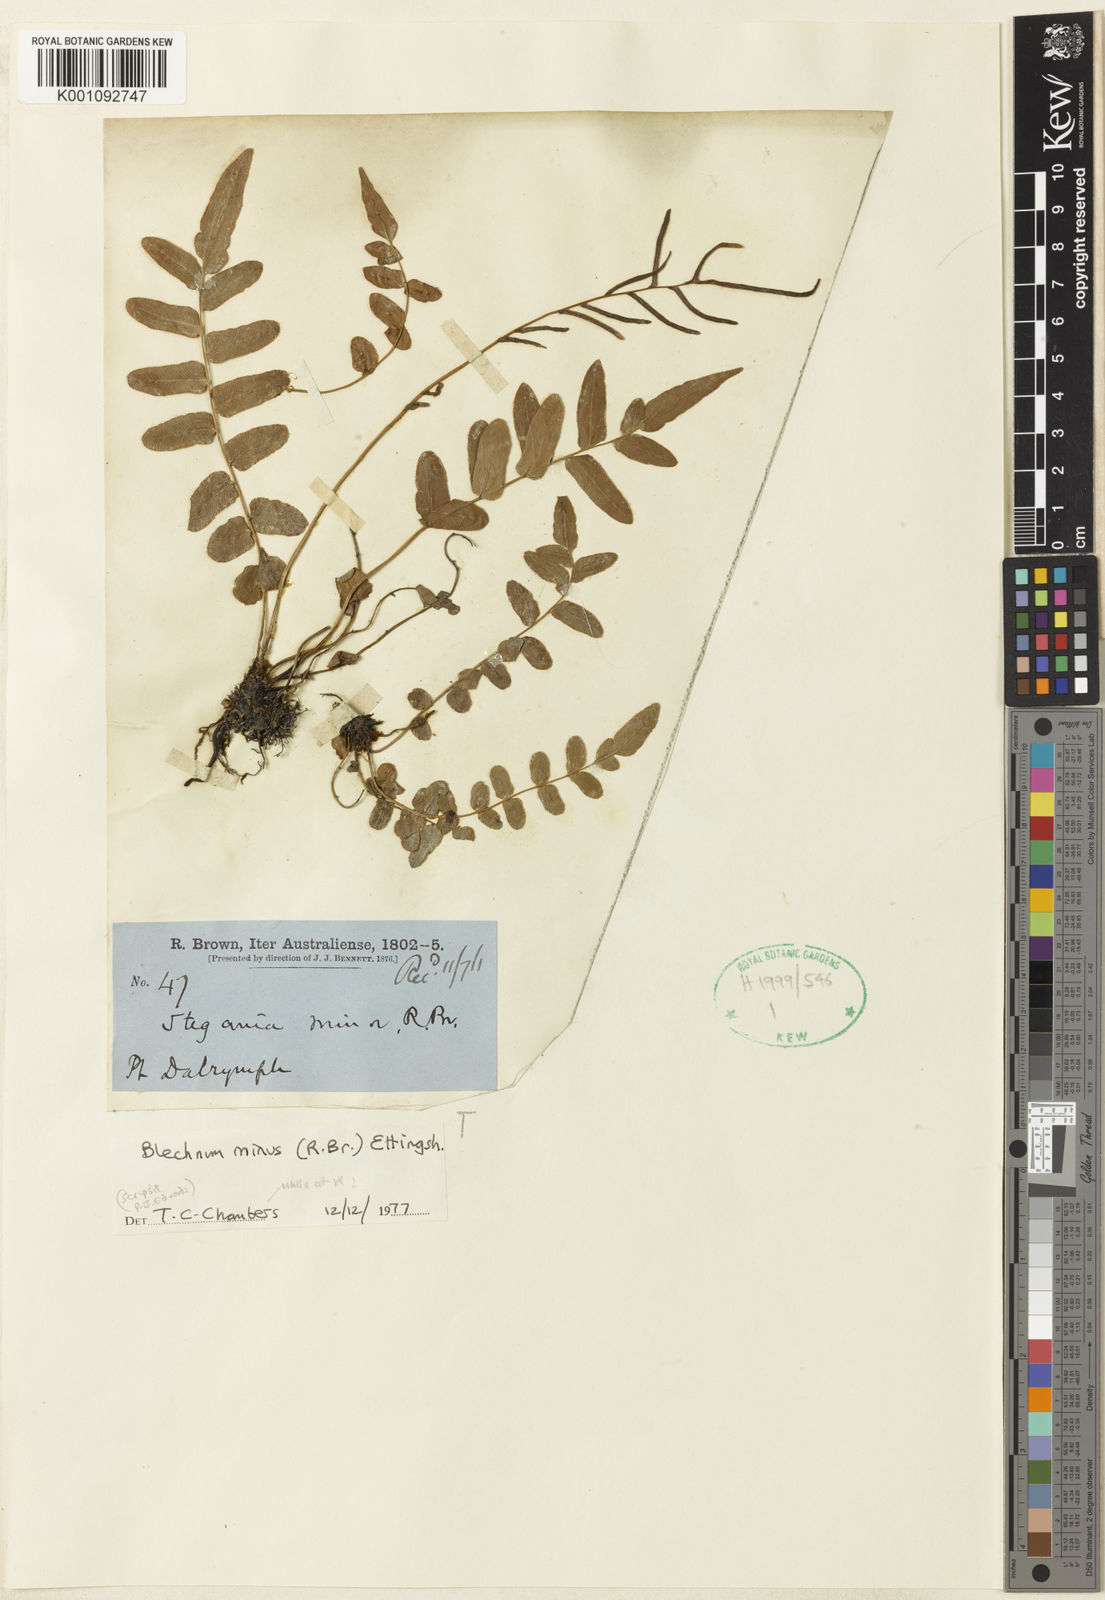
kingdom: Plantae
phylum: Tracheophyta
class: Polypodiopsida
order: Polypodiales
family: Blechnaceae
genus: Parablechnum
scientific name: Parablechnum minus
